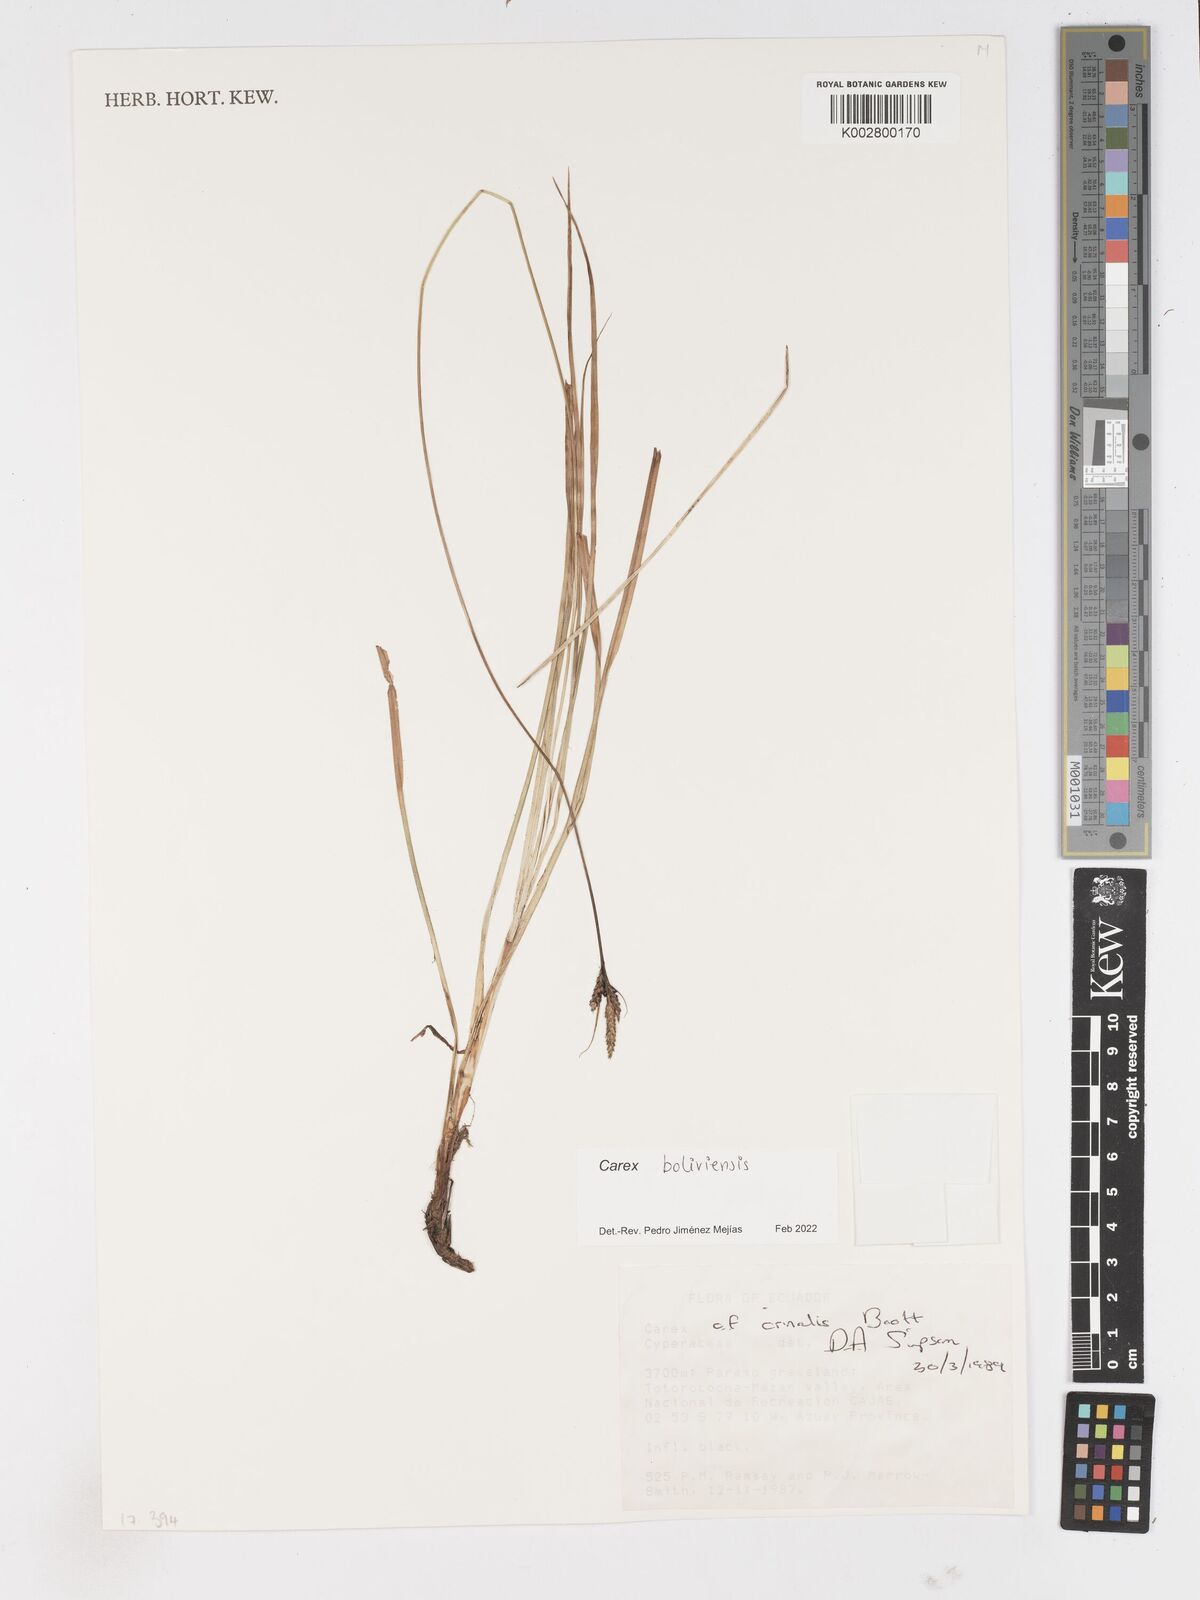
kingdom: Plantae
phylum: Tracheophyta
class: Liliopsida
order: Poales
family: Cyperaceae
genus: Carex
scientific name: Carex boliviensis
